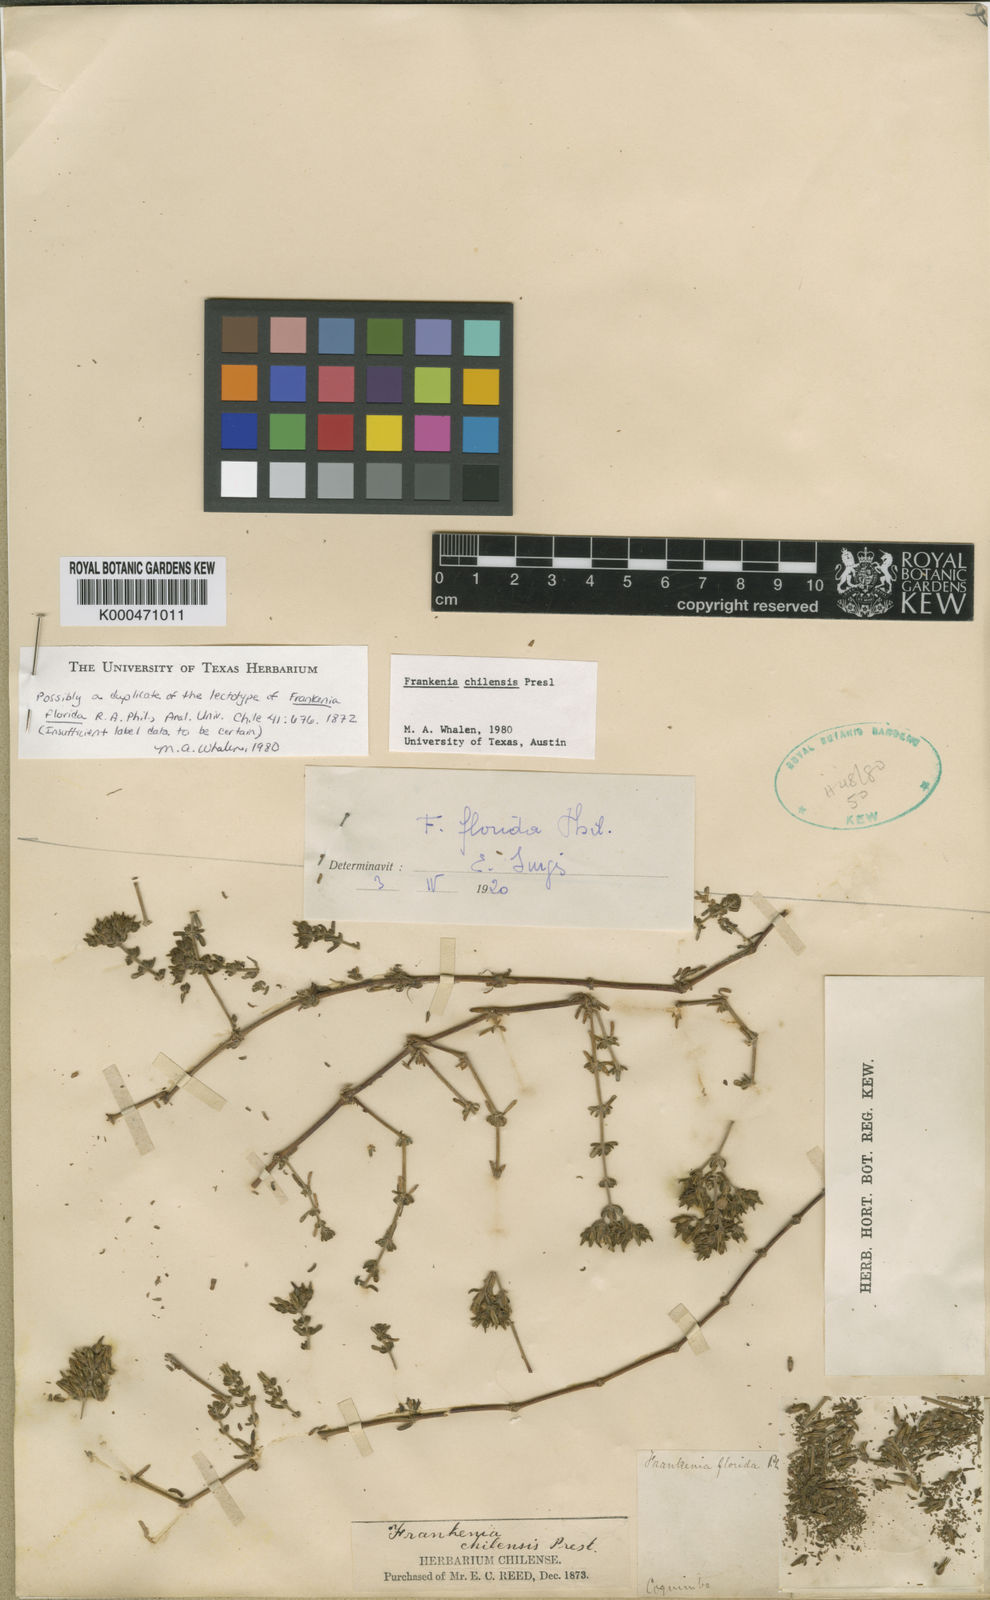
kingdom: Plantae
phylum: Tracheophyta
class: Magnoliopsida
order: Caryophyllales
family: Frankeniaceae
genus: Frankenia
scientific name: Frankenia
